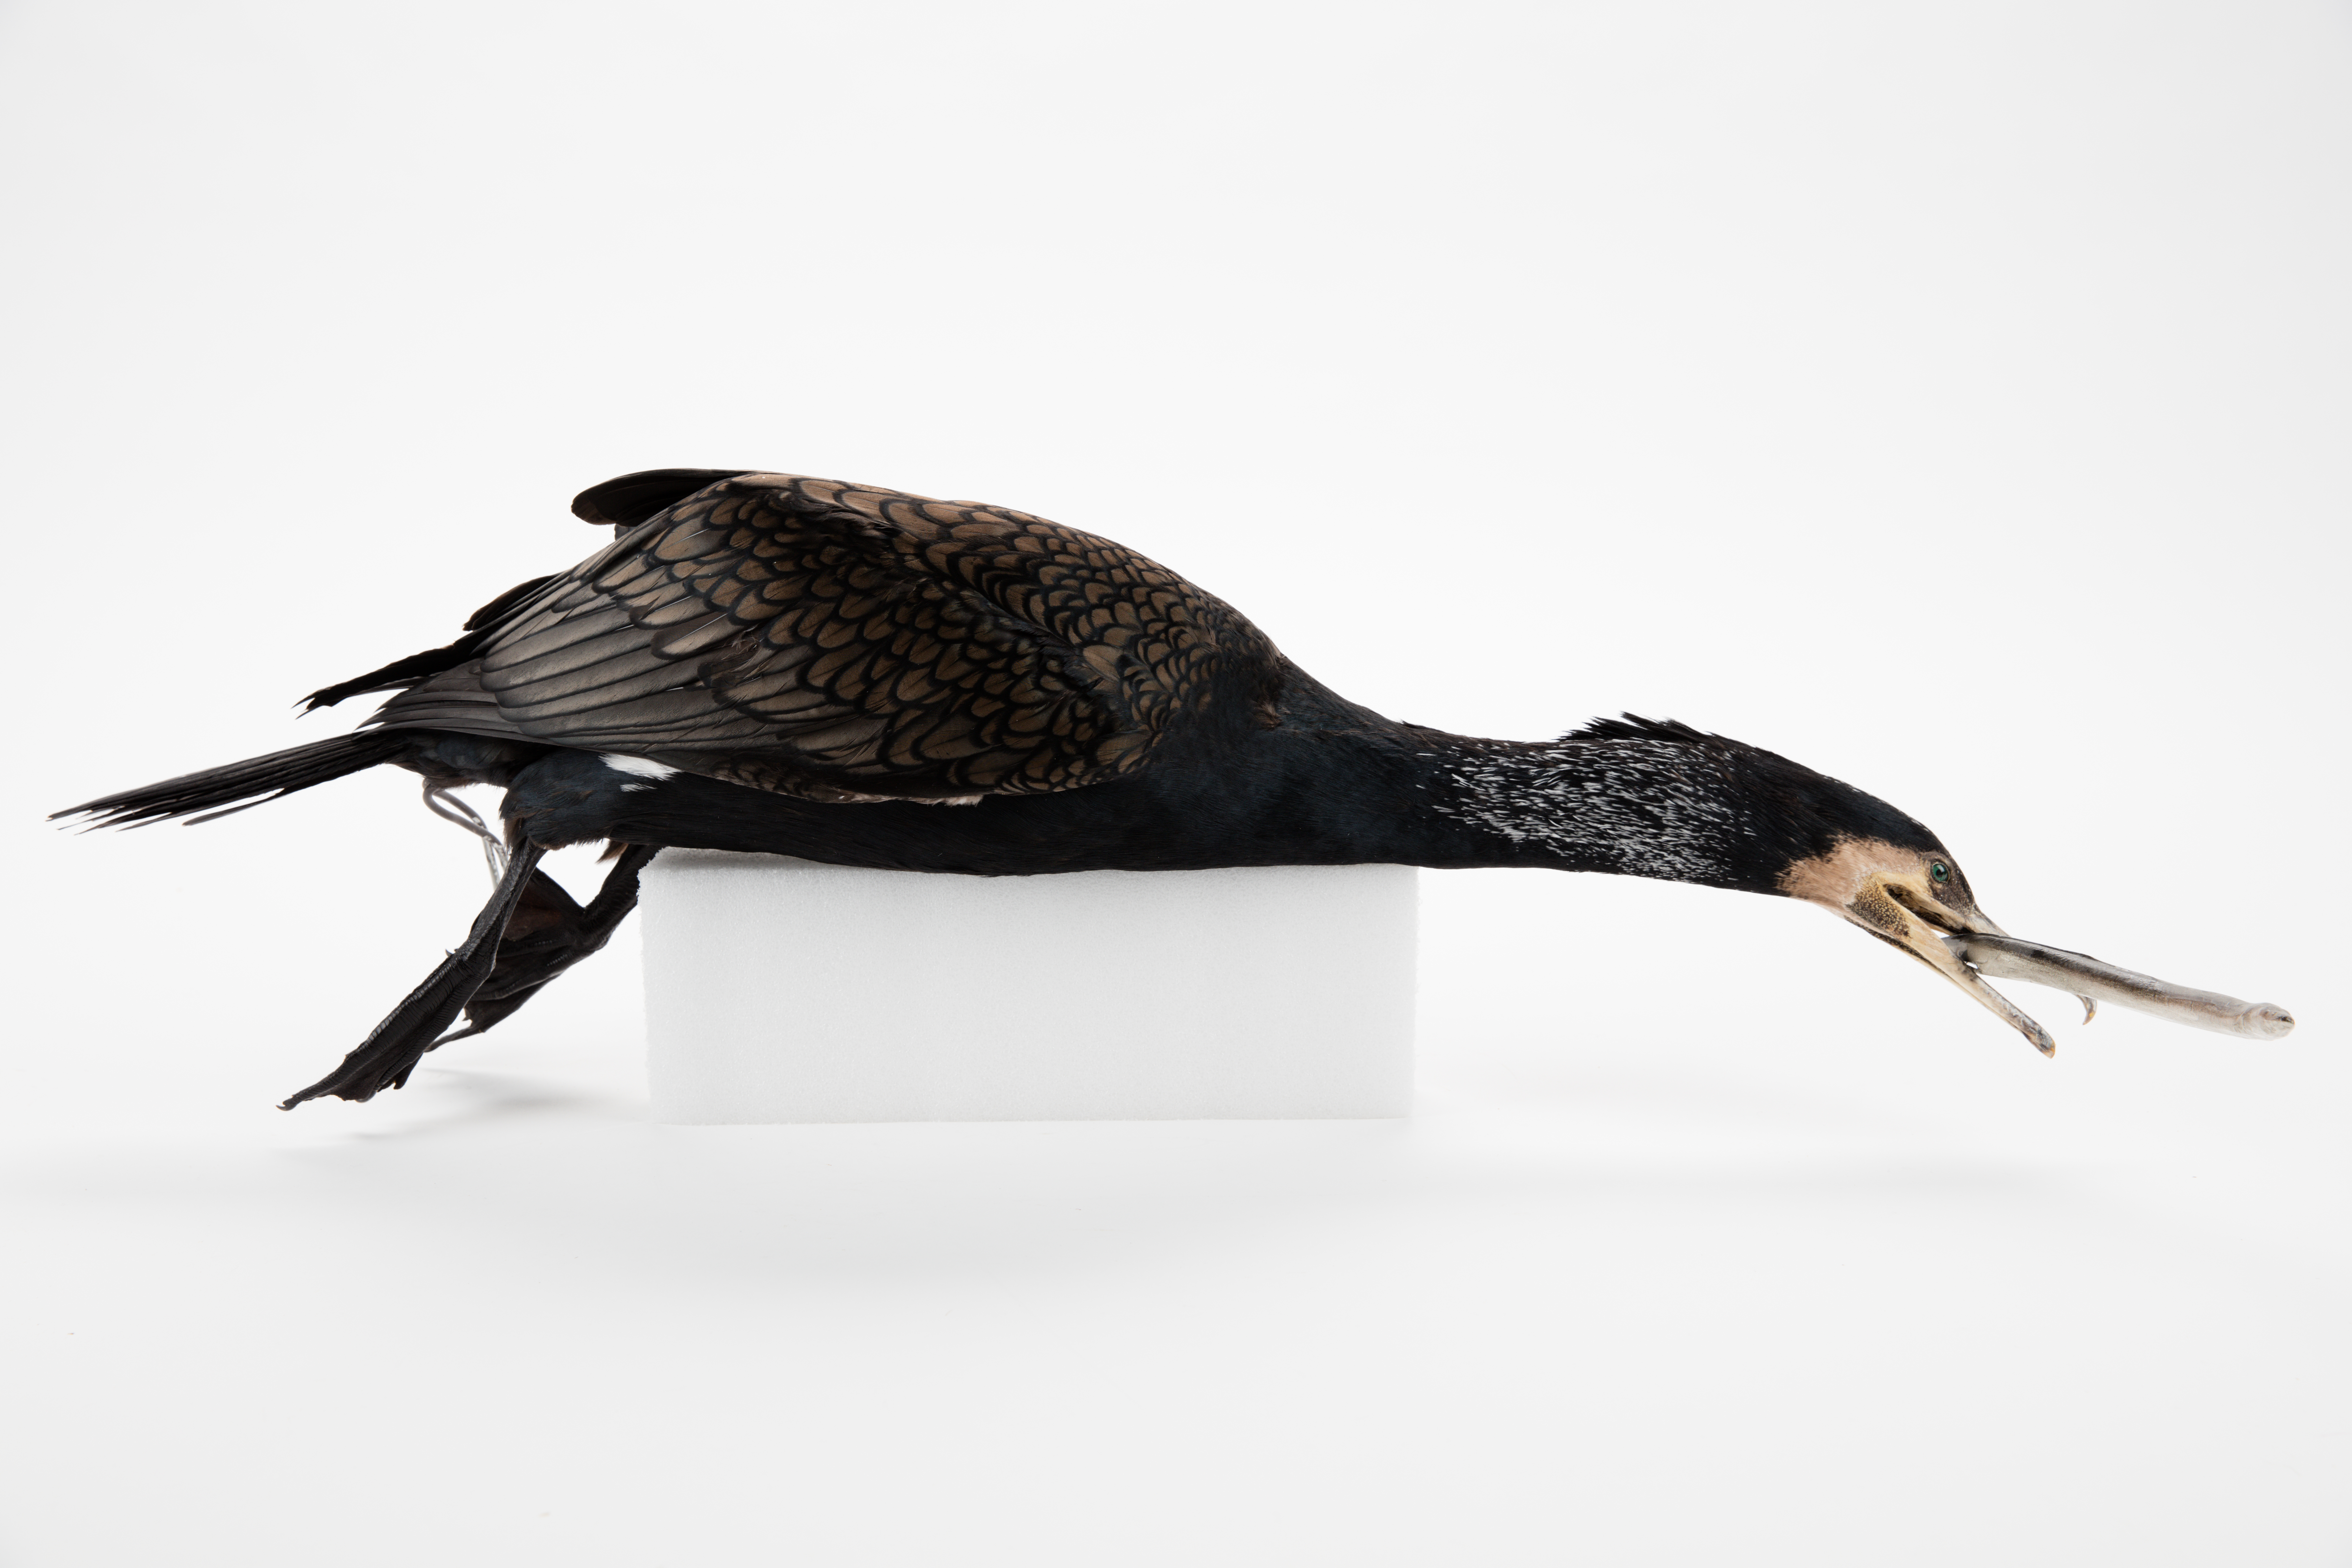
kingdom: Animalia
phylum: Chordata
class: Aves
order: Suliformes
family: Phalacrocoracidae
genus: Phalacrocorax
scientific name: Phalacrocorax carbo
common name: Great cormorant
